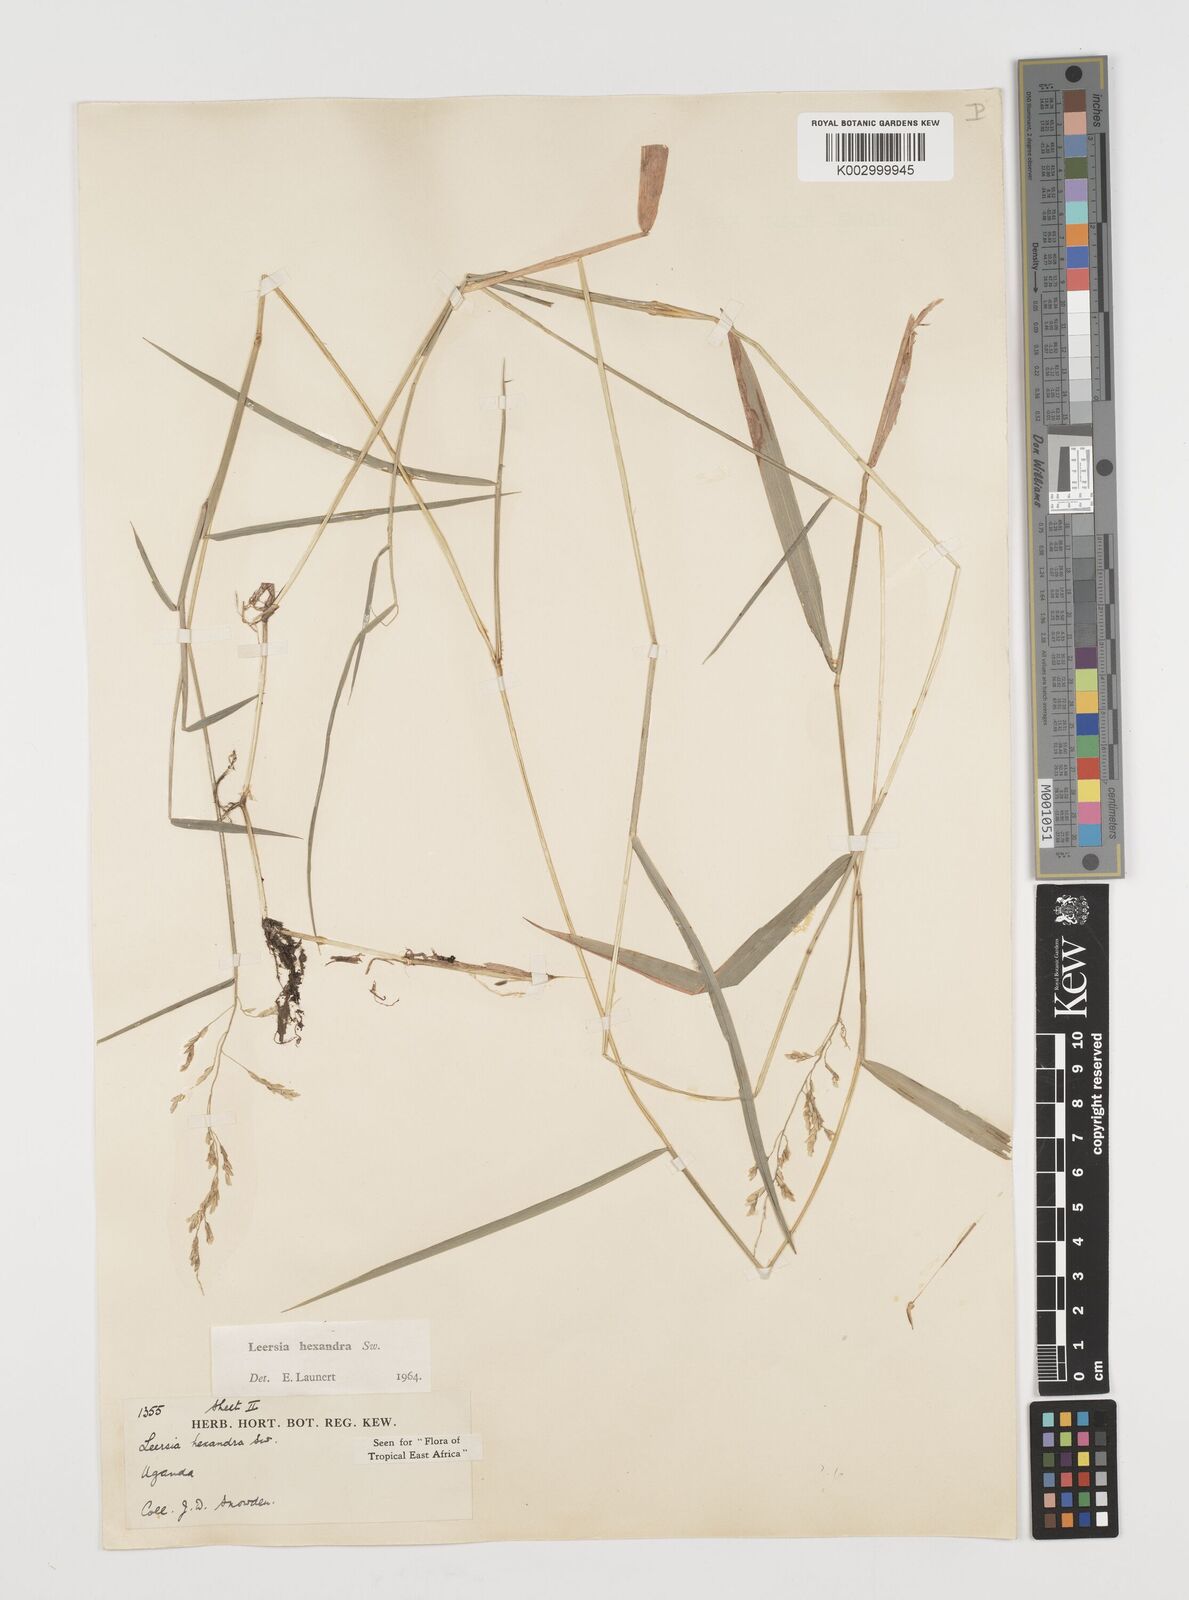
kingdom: Plantae
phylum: Tracheophyta
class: Liliopsida
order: Poales
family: Poaceae
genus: Leersia
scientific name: Leersia hexandra
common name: Southern cut grass
